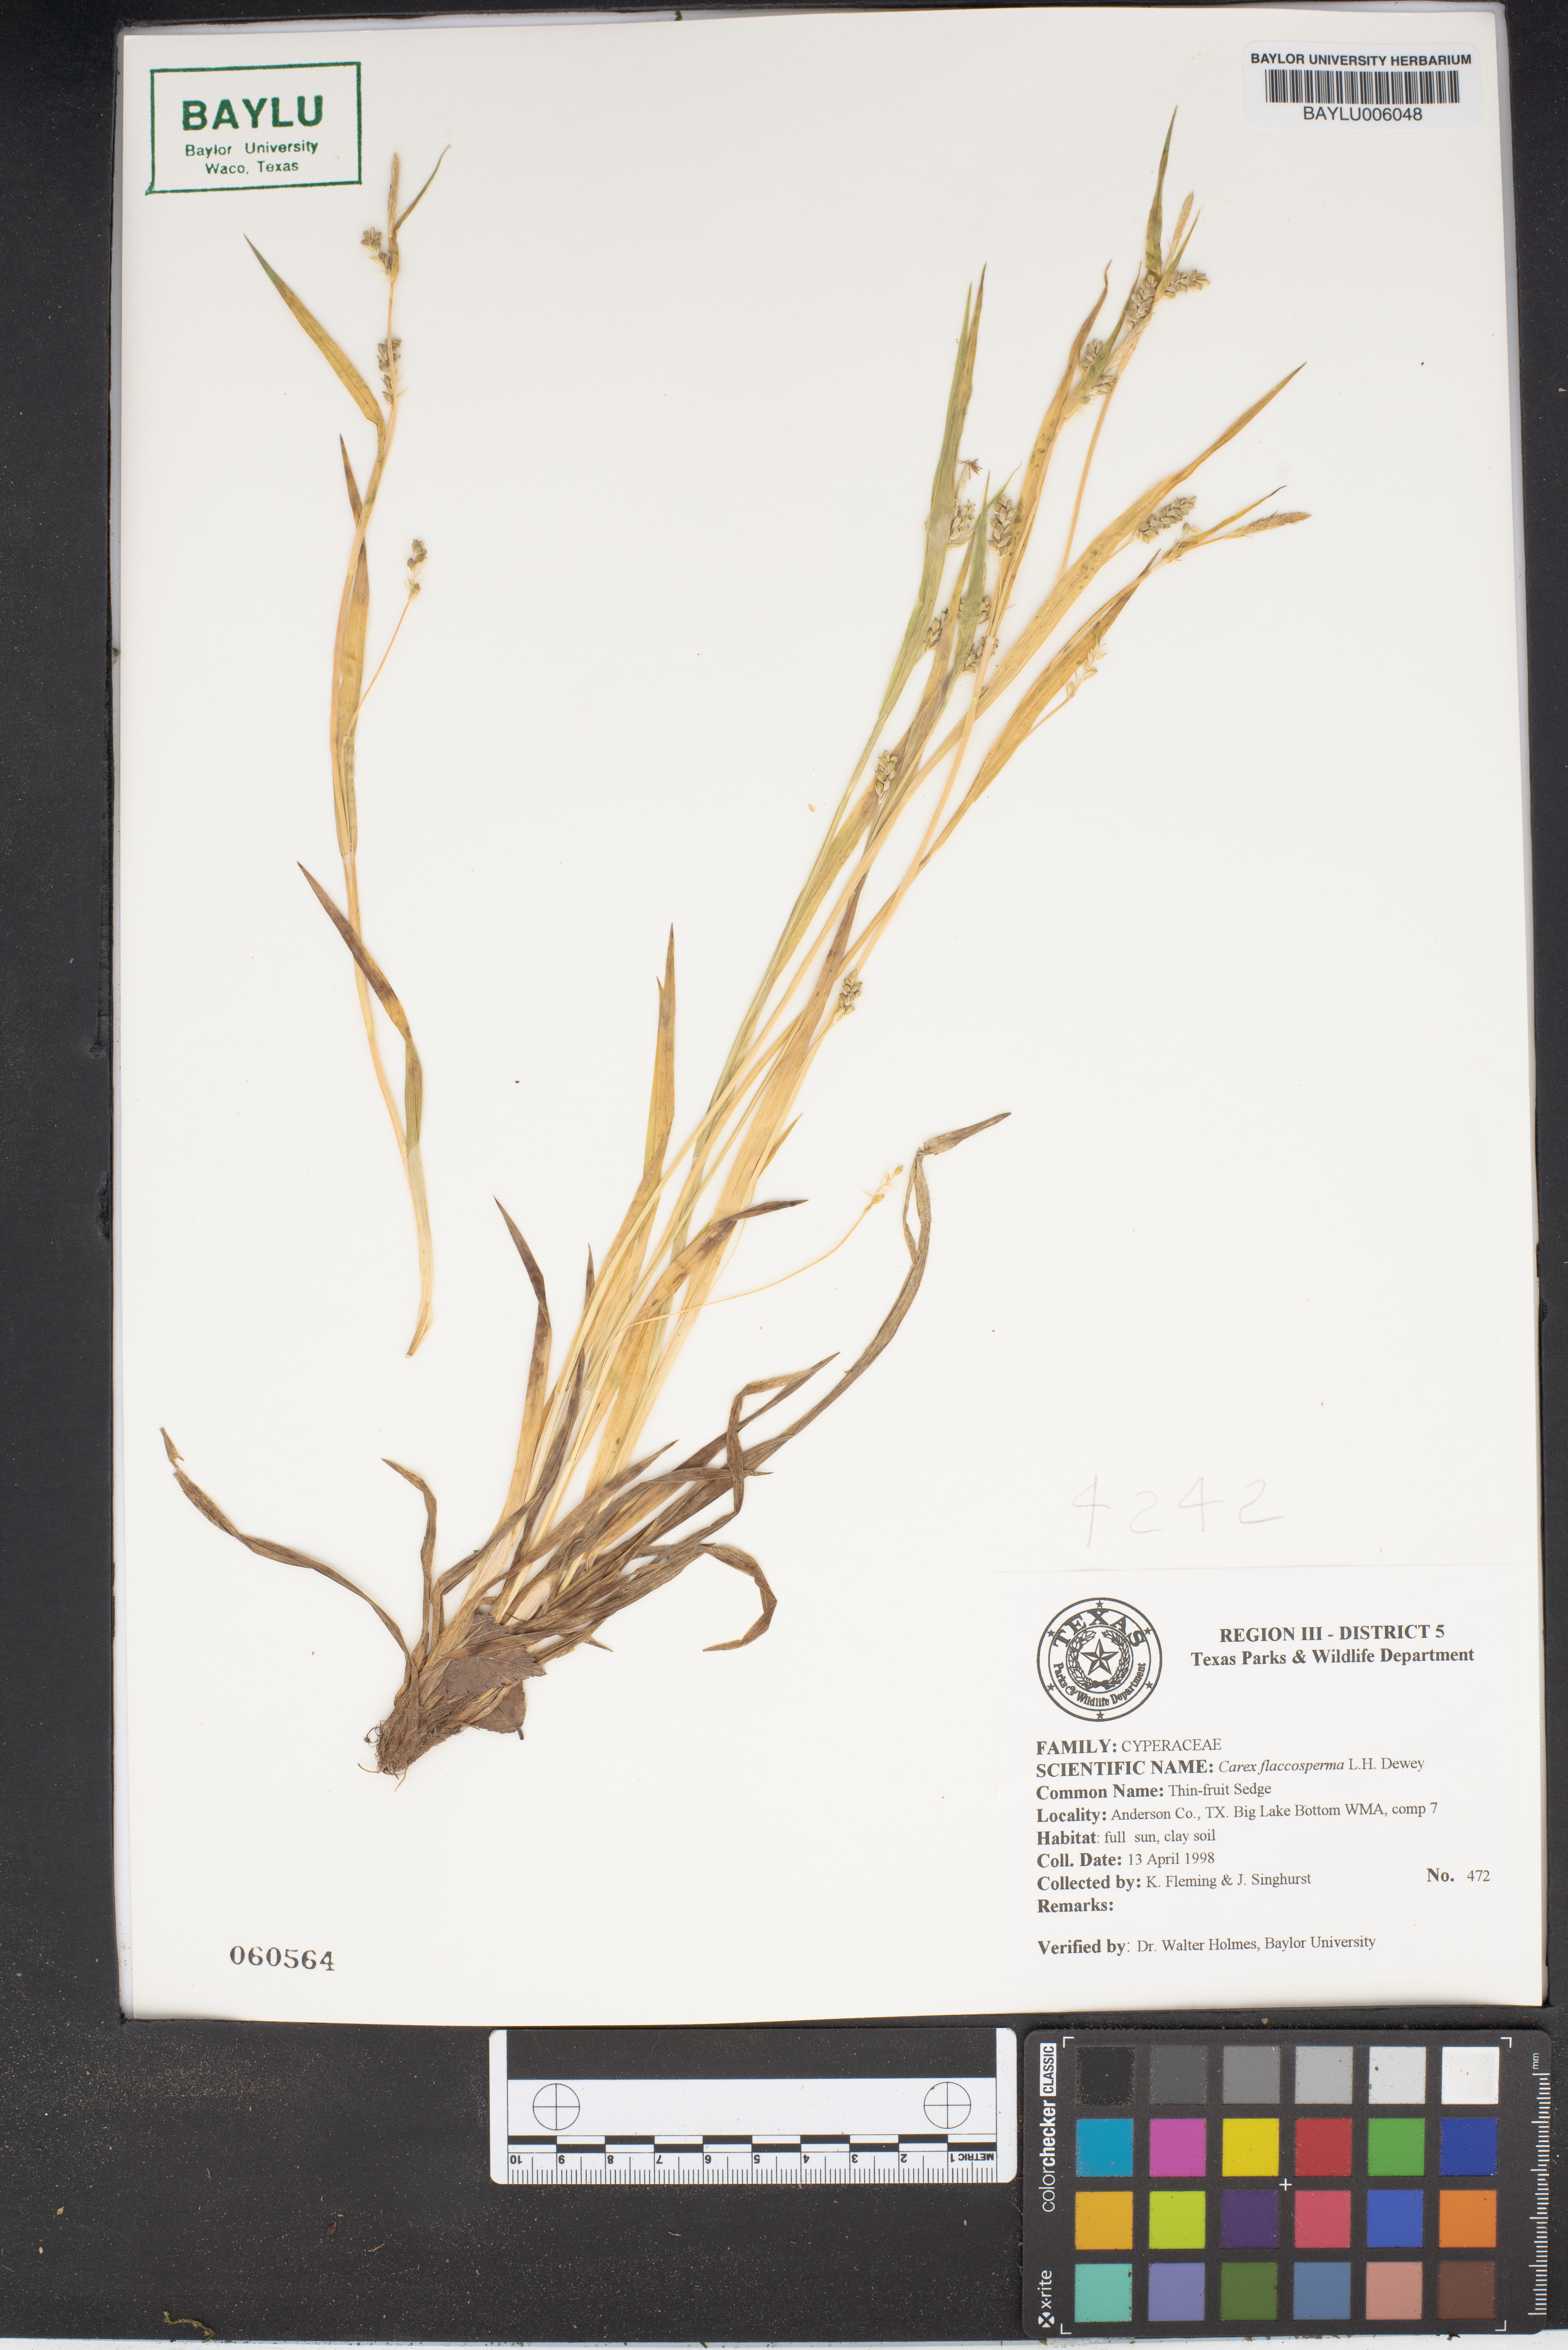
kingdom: Plantae
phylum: Tracheophyta
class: Liliopsida
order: Poales
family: Cyperaceae
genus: Carex
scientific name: Carex flaccosperma
